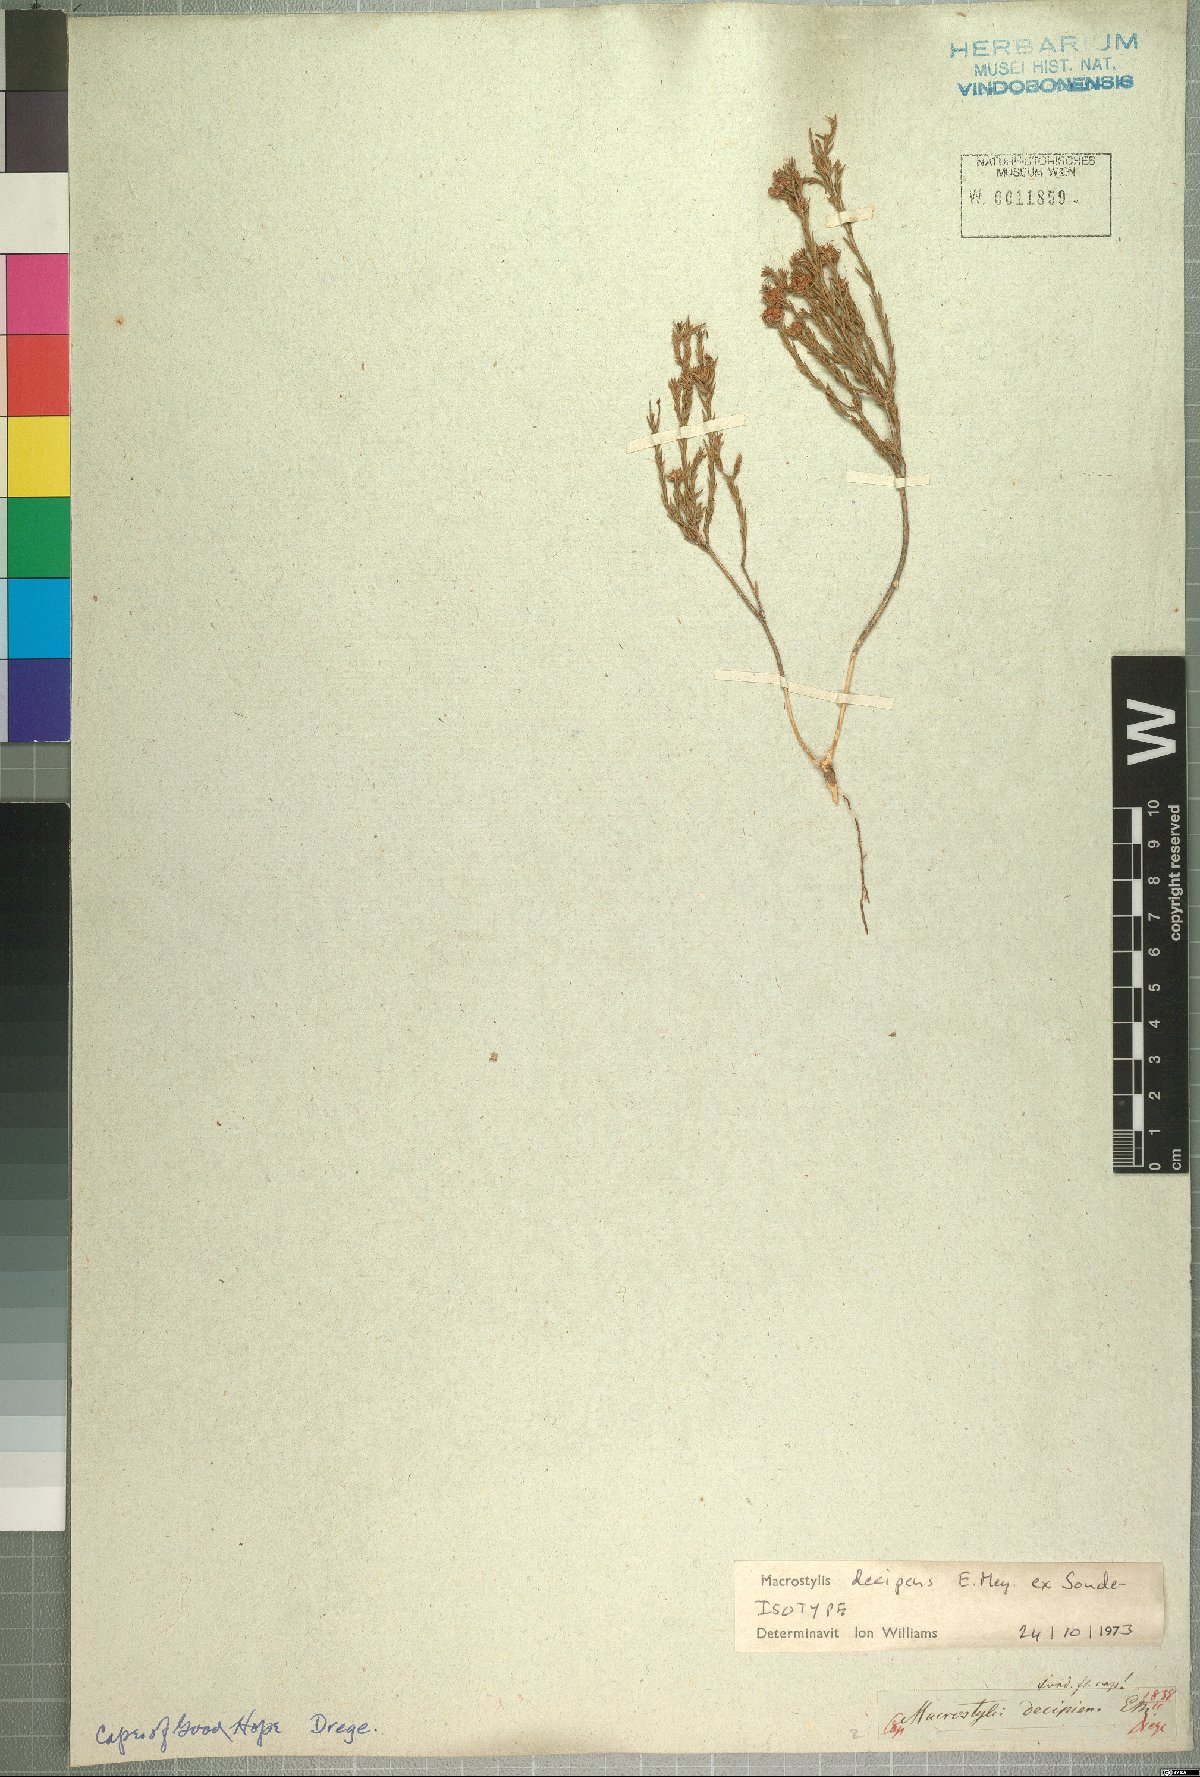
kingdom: Plantae
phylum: Tracheophyta
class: Magnoliopsida
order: Sapindales
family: Rutaceae
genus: Macrostylis
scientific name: Macrostylis decipiens
